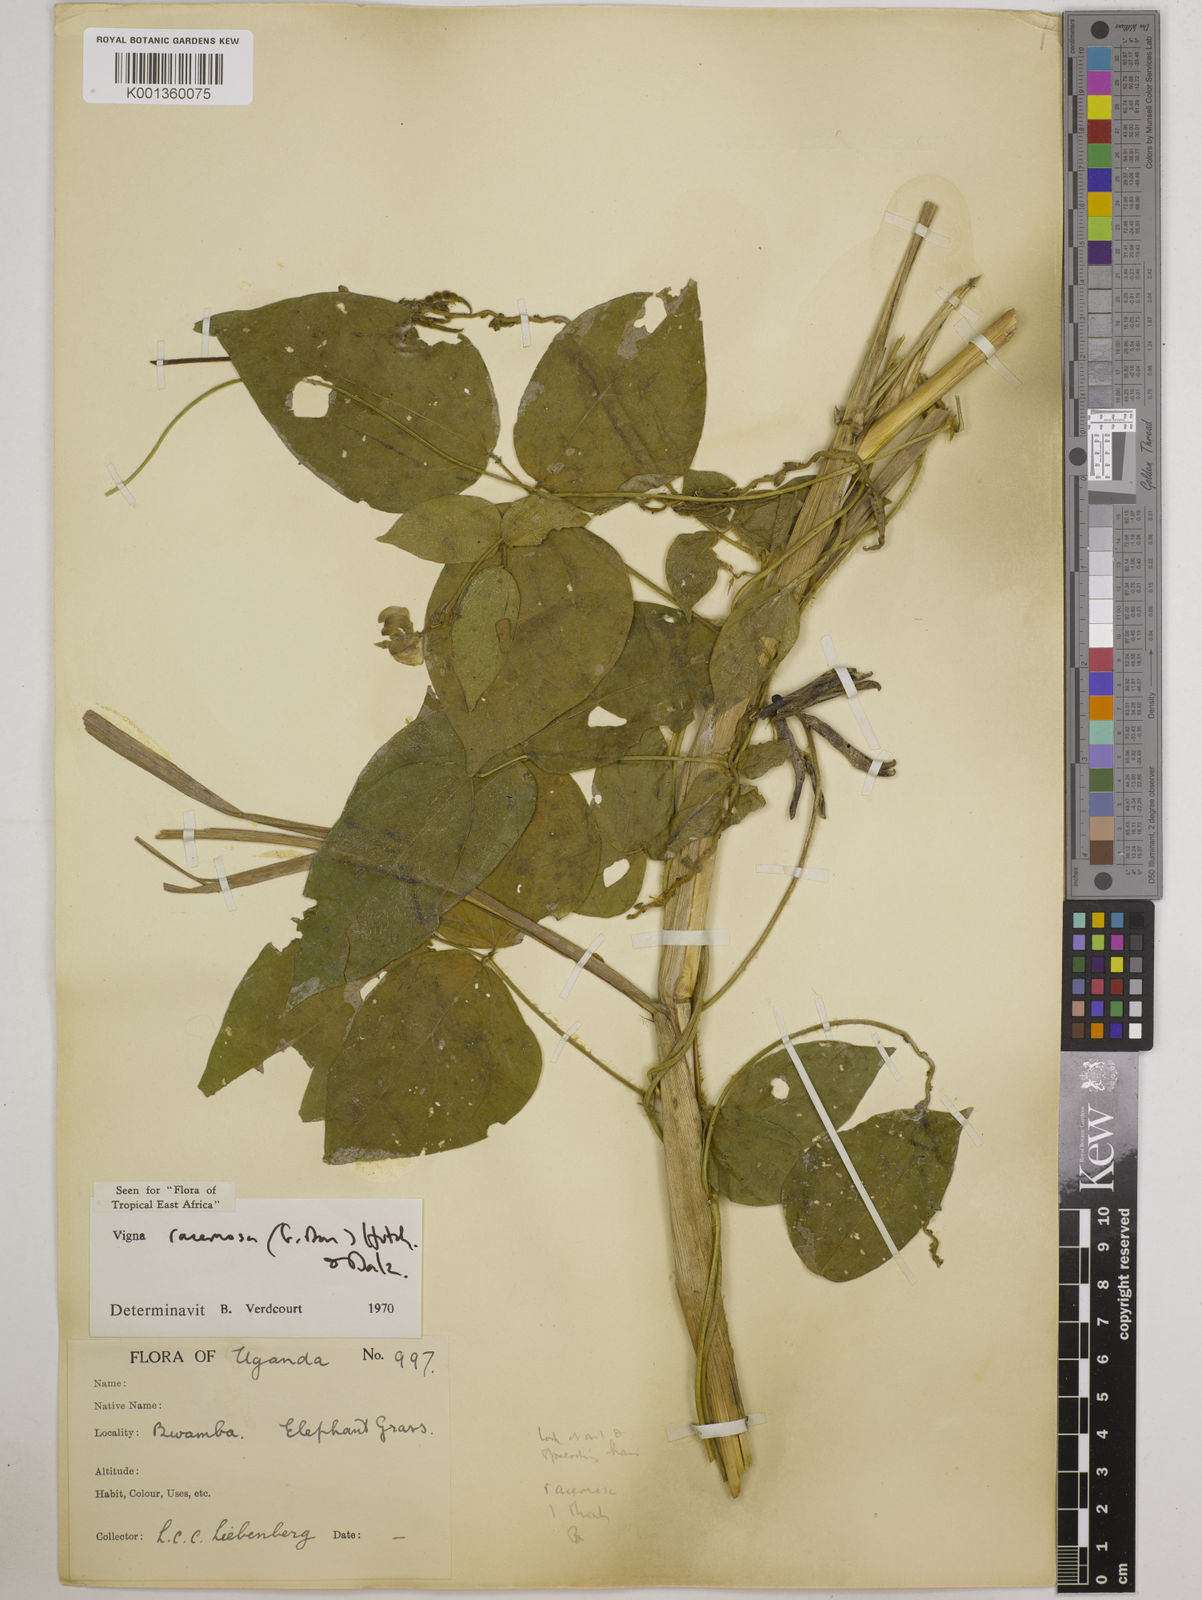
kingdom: Plantae
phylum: Tracheophyta
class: Magnoliopsida
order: Fabales
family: Fabaceae
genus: Vigna
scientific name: Vigna racemosa
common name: Beans not eaten
